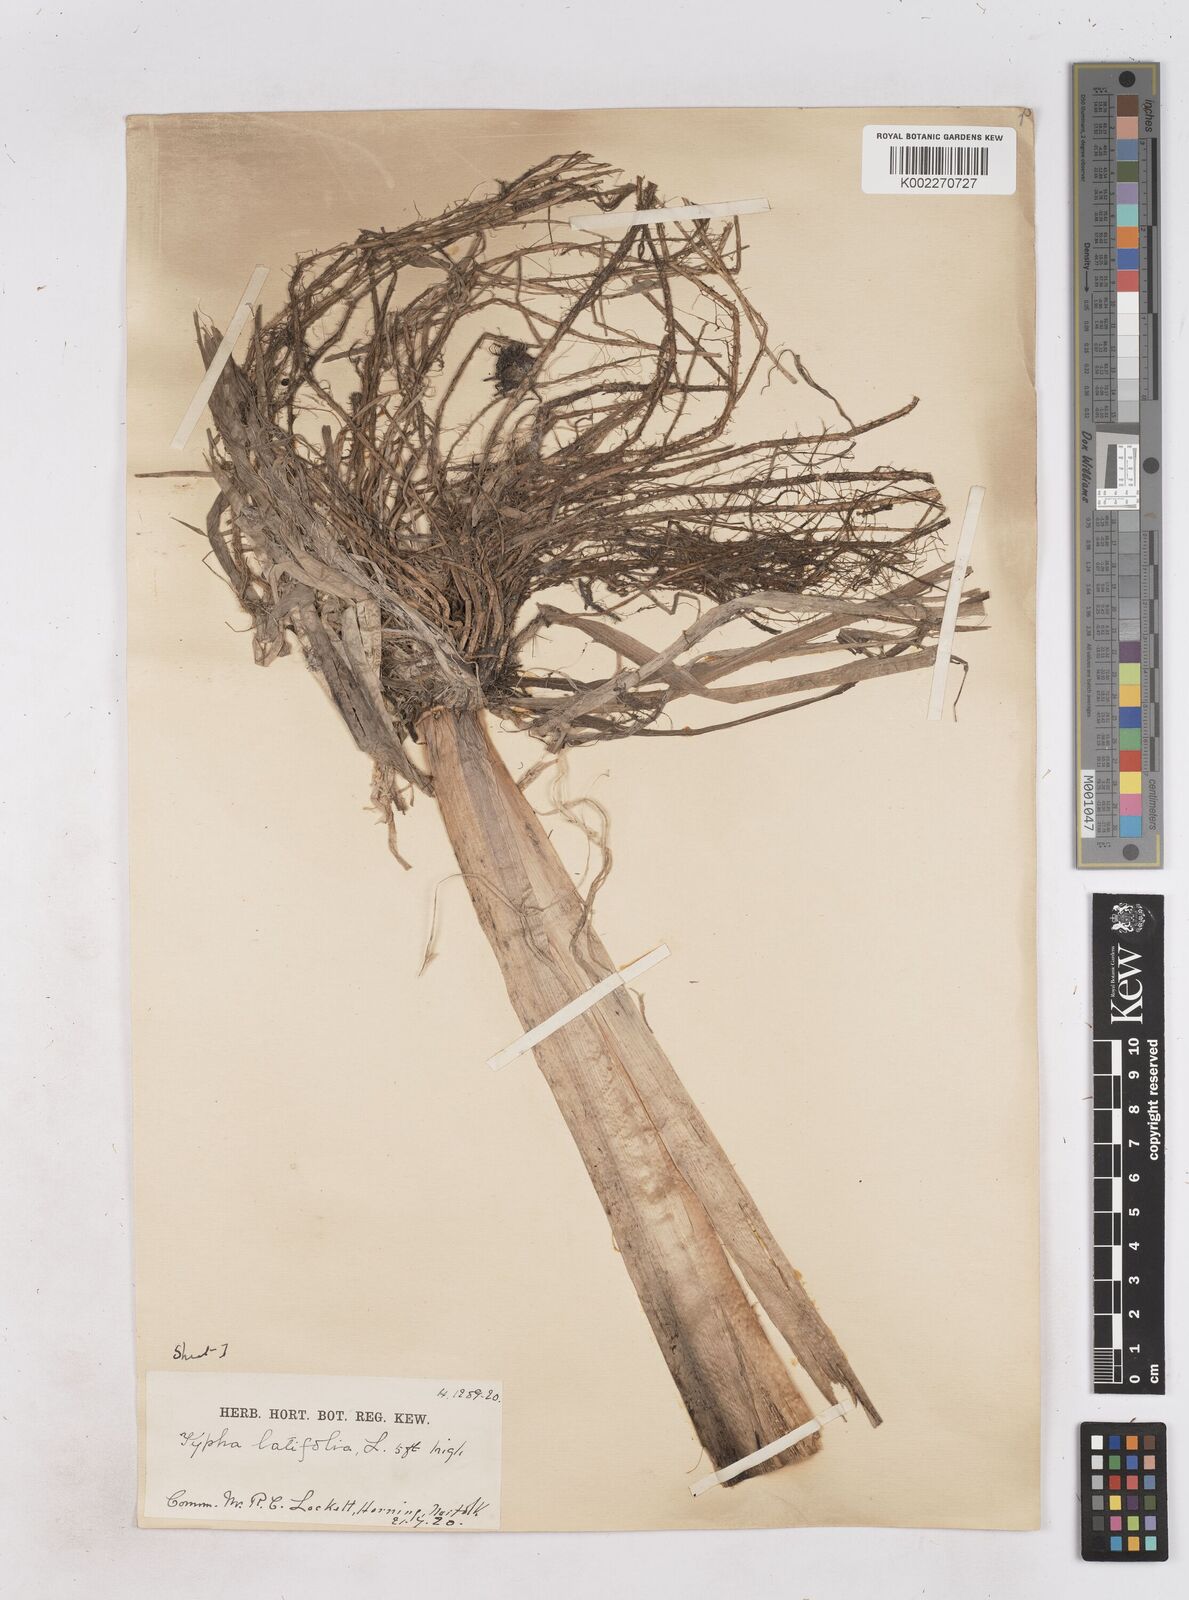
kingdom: Plantae
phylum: Tracheophyta
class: Liliopsida
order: Poales
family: Typhaceae
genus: Typha
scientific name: Typha latifolia
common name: Broadleaf cattail
